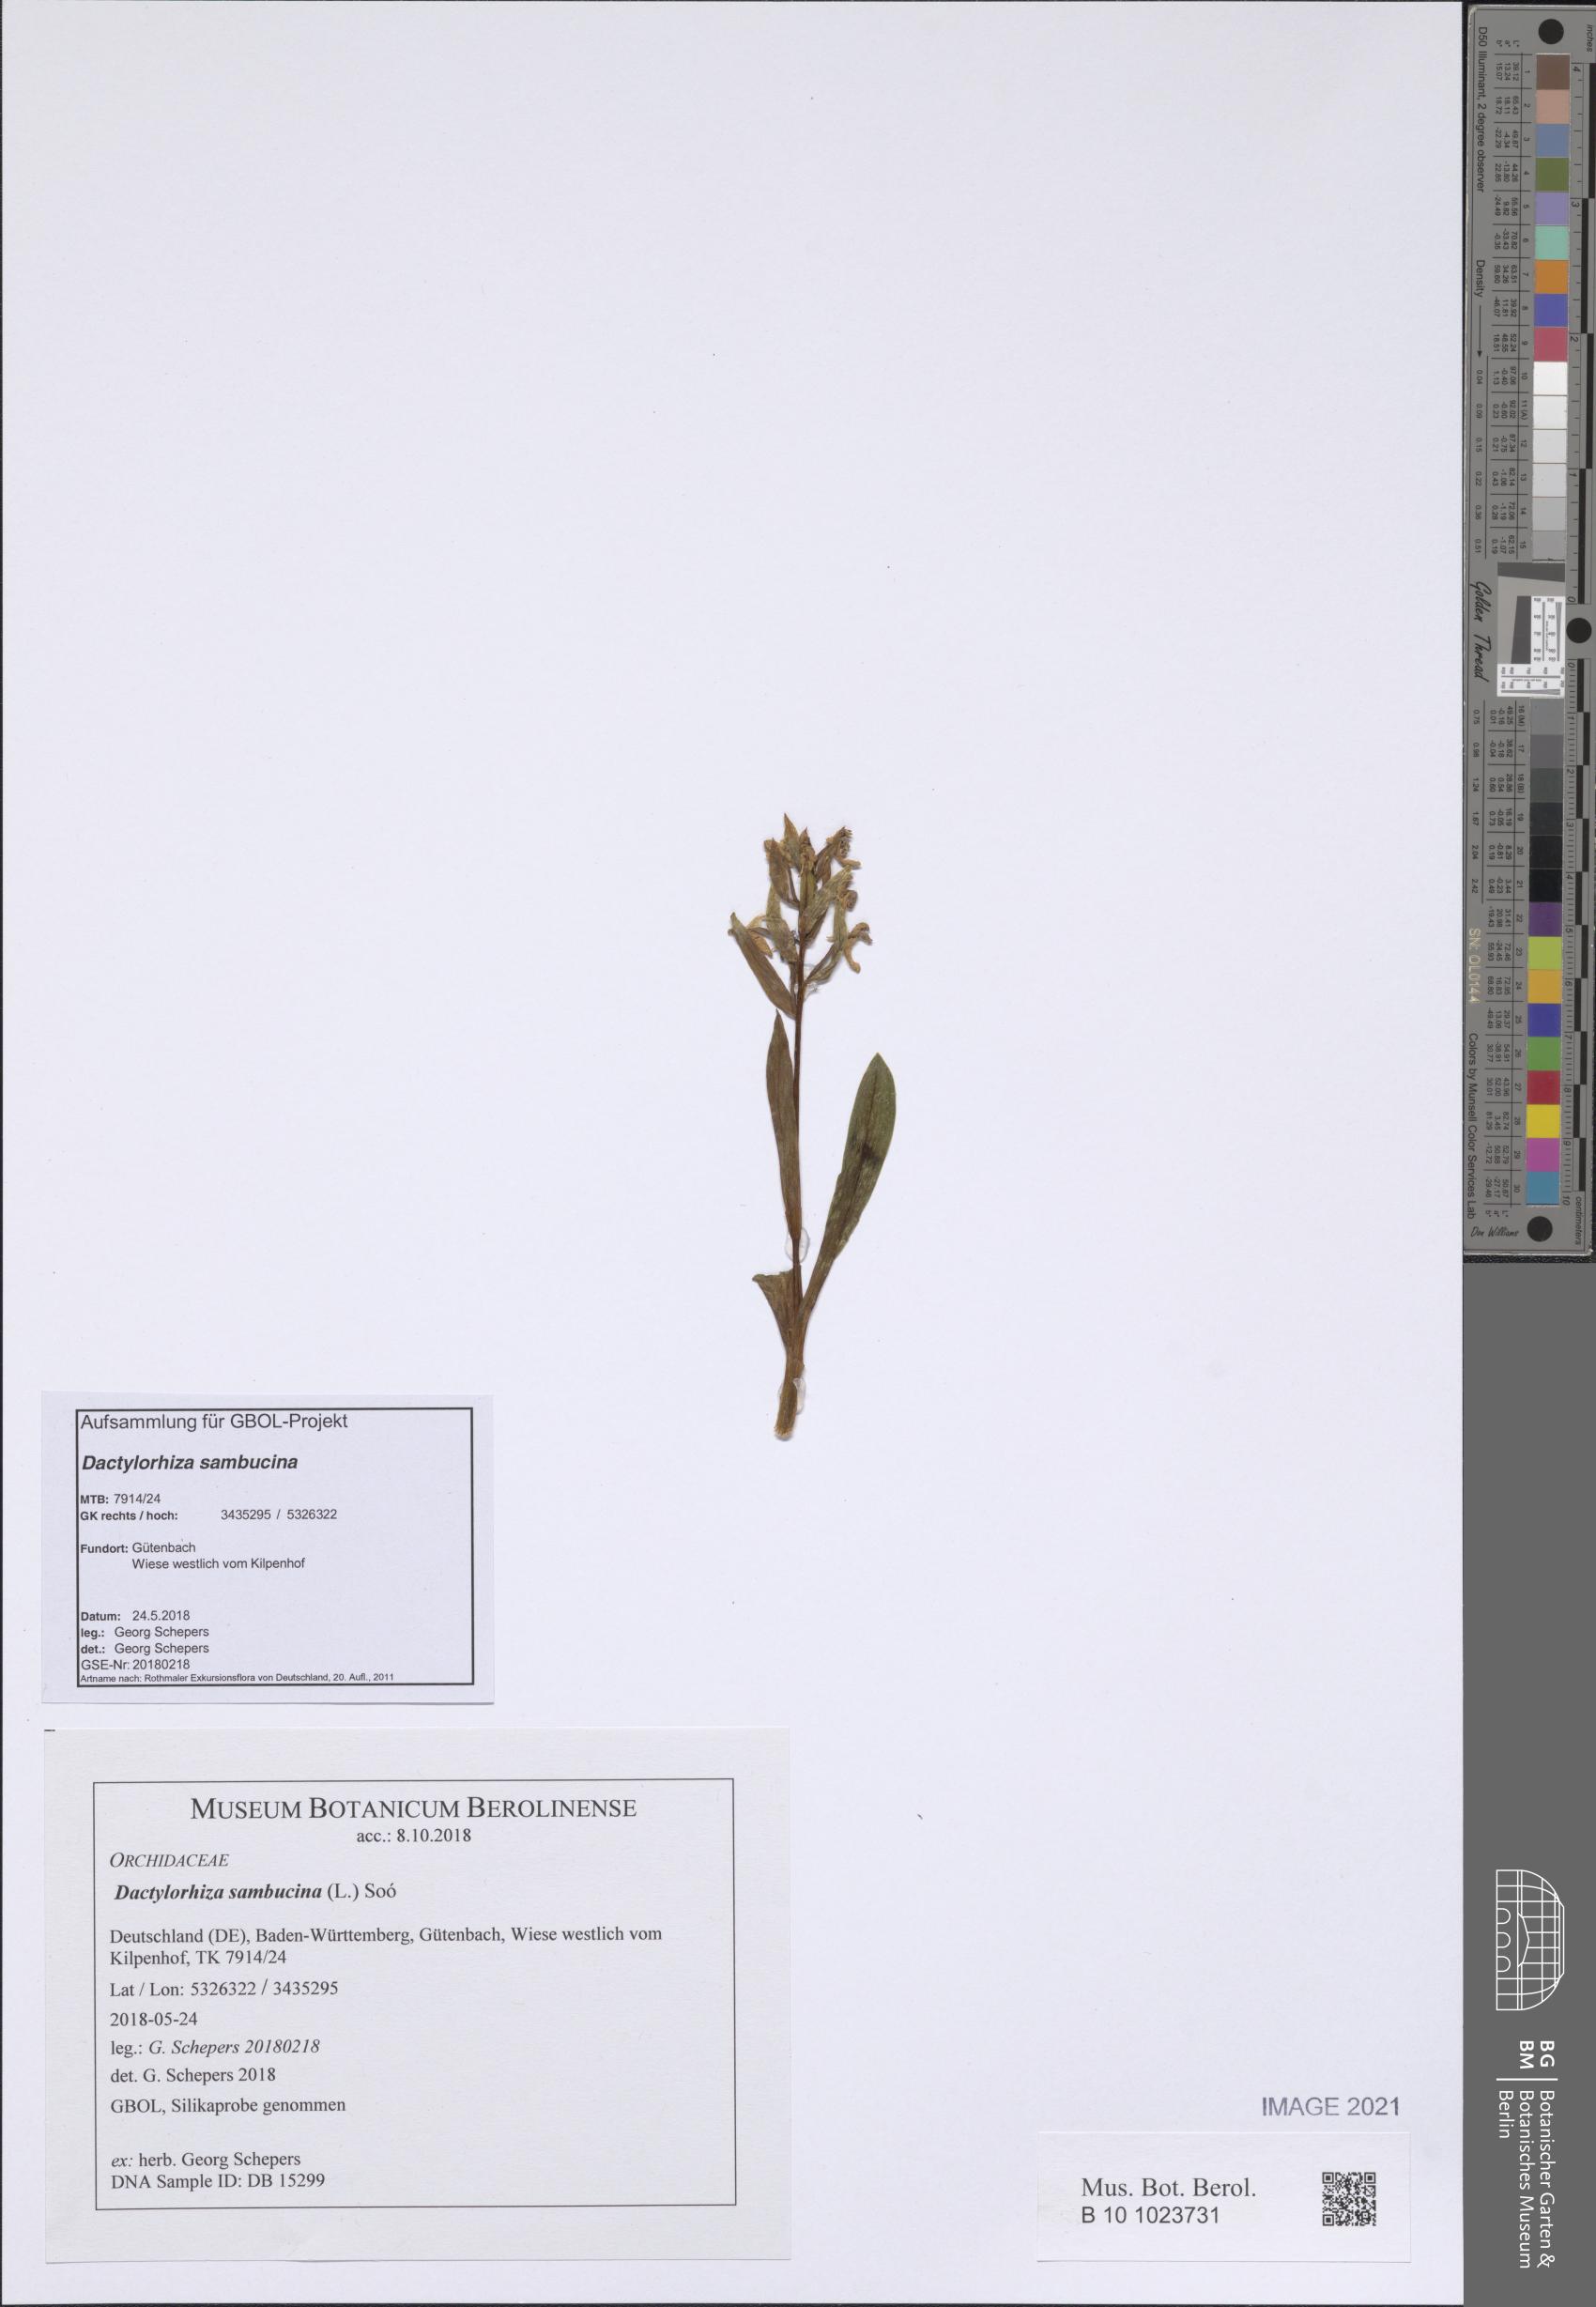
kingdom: Plantae
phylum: Tracheophyta
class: Liliopsida
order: Asparagales
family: Orchidaceae
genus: Dactylorhiza
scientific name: Dactylorhiza sambucina
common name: Elder-flowered orchid
